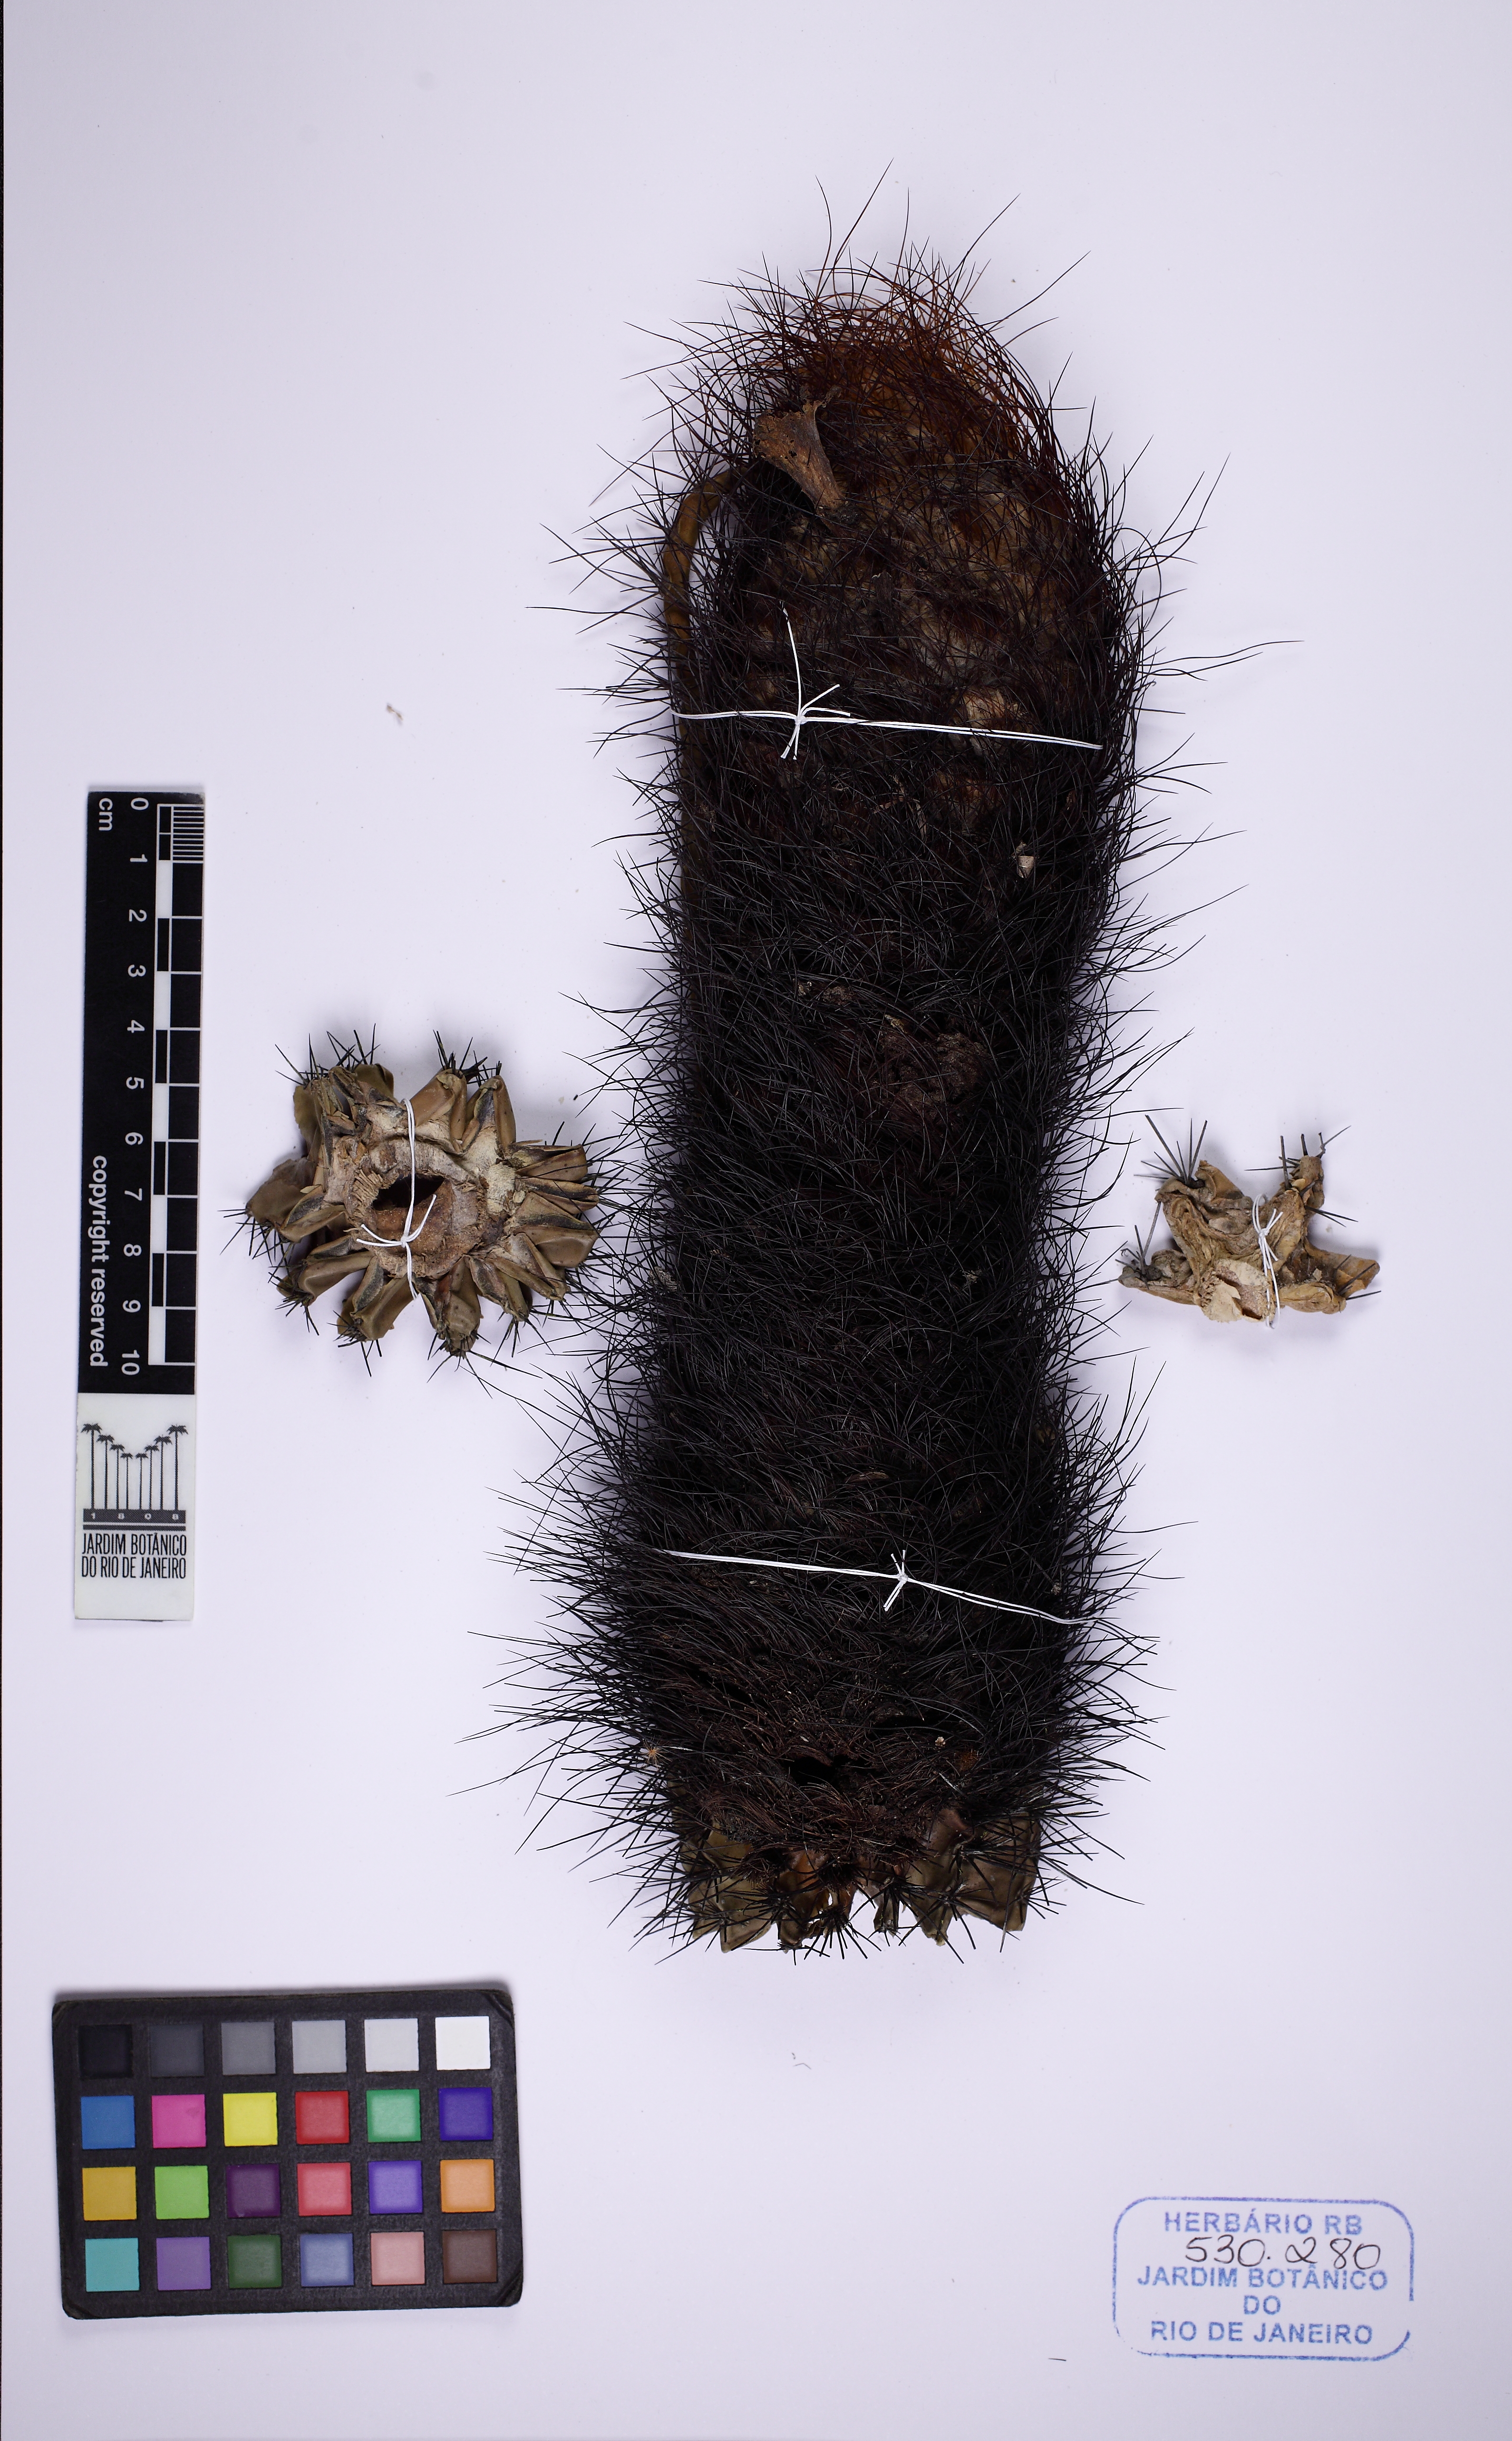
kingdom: Plantae
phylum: Tracheophyta
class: Magnoliopsida
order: Caryophyllales
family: Cactaceae
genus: Coleocephalocereus
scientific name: Coleocephalocereus fluminensis
